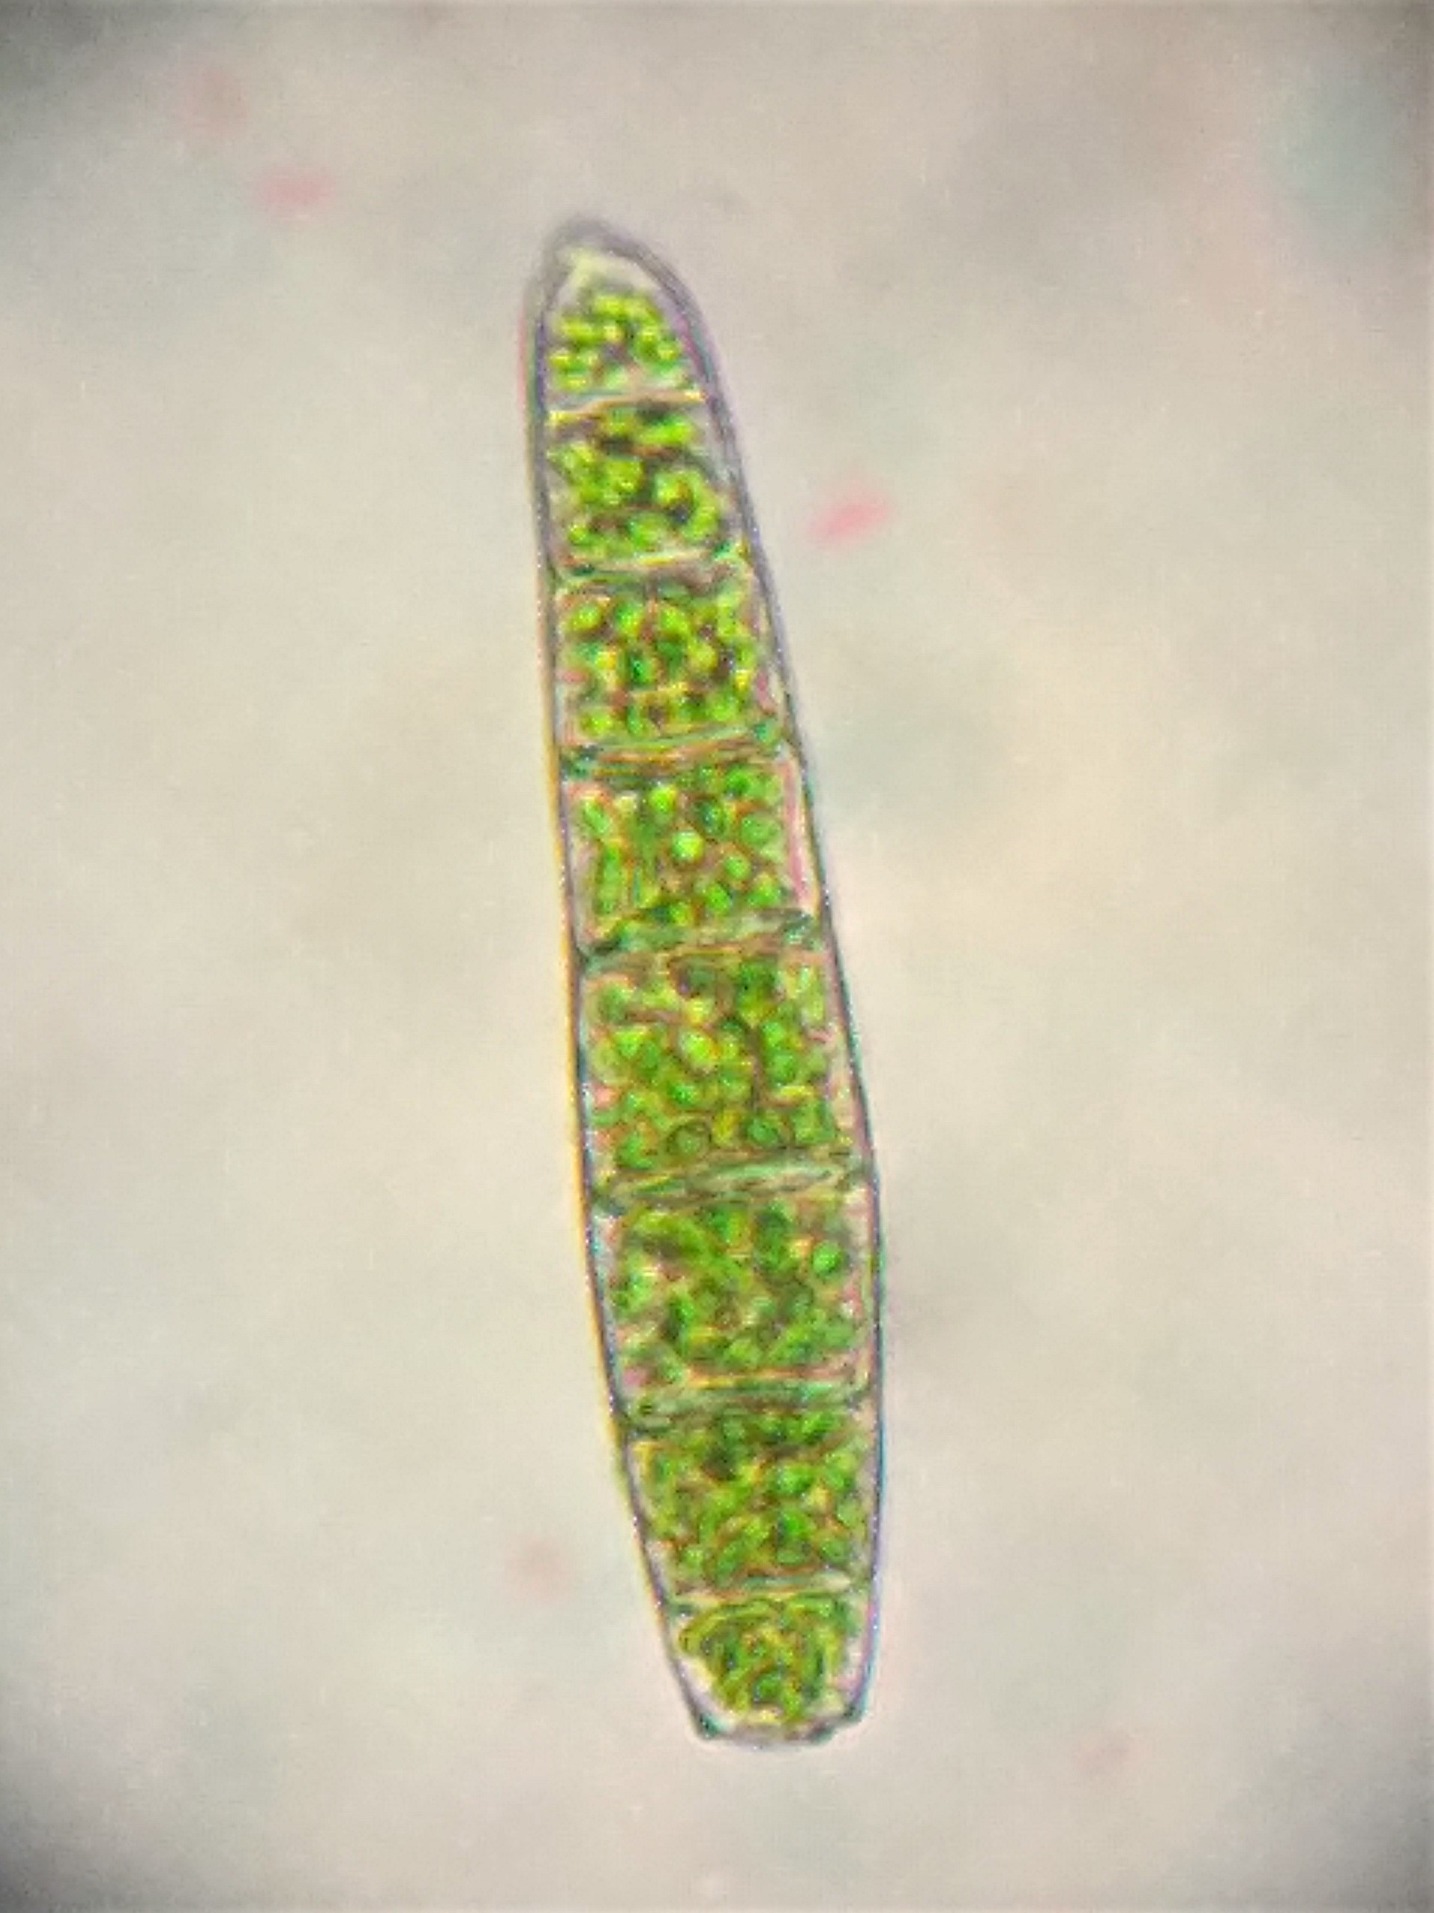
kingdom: Plantae
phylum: Bryophyta
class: Bryopsida
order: Orthotrichales
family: Orthotrichaceae
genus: Zygodon
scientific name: Zygodon conoideus
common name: Tand-køllemos
